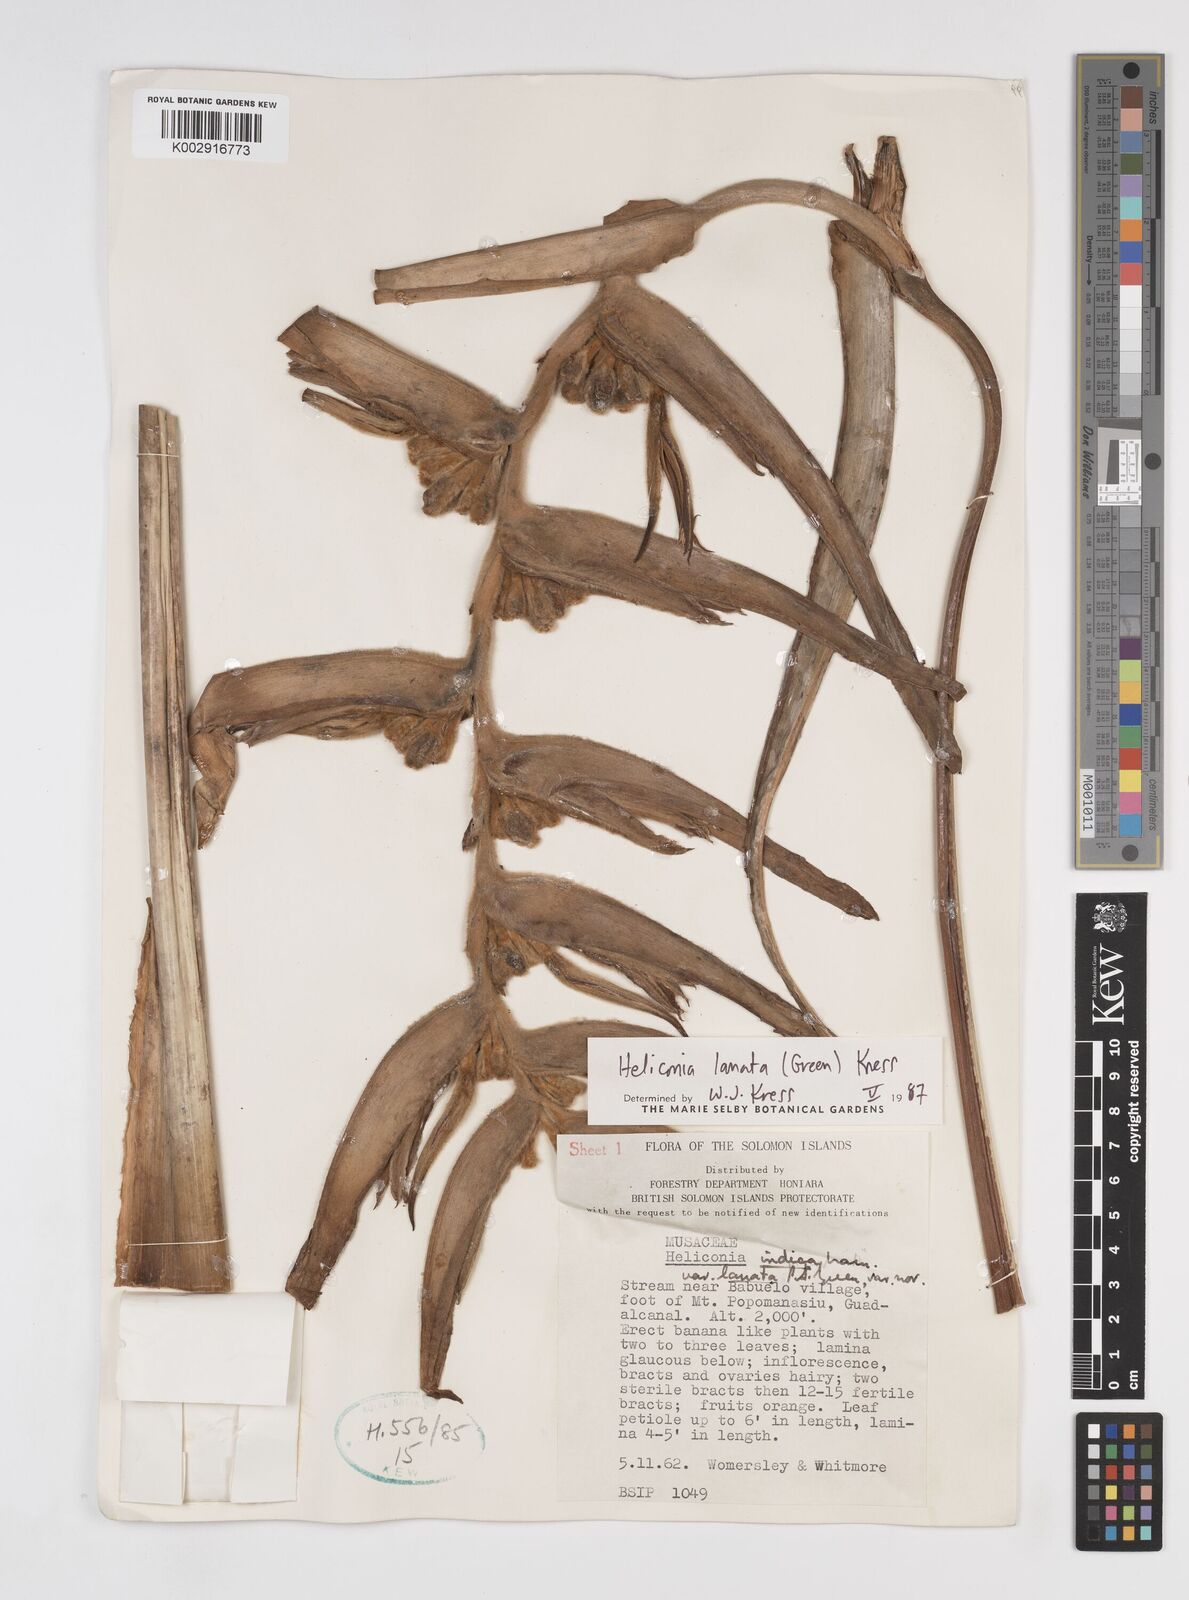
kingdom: Plantae
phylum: Tracheophyta
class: Liliopsida
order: Zingiberales
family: Heliconiaceae
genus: Heliconia
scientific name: Heliconia lanata
